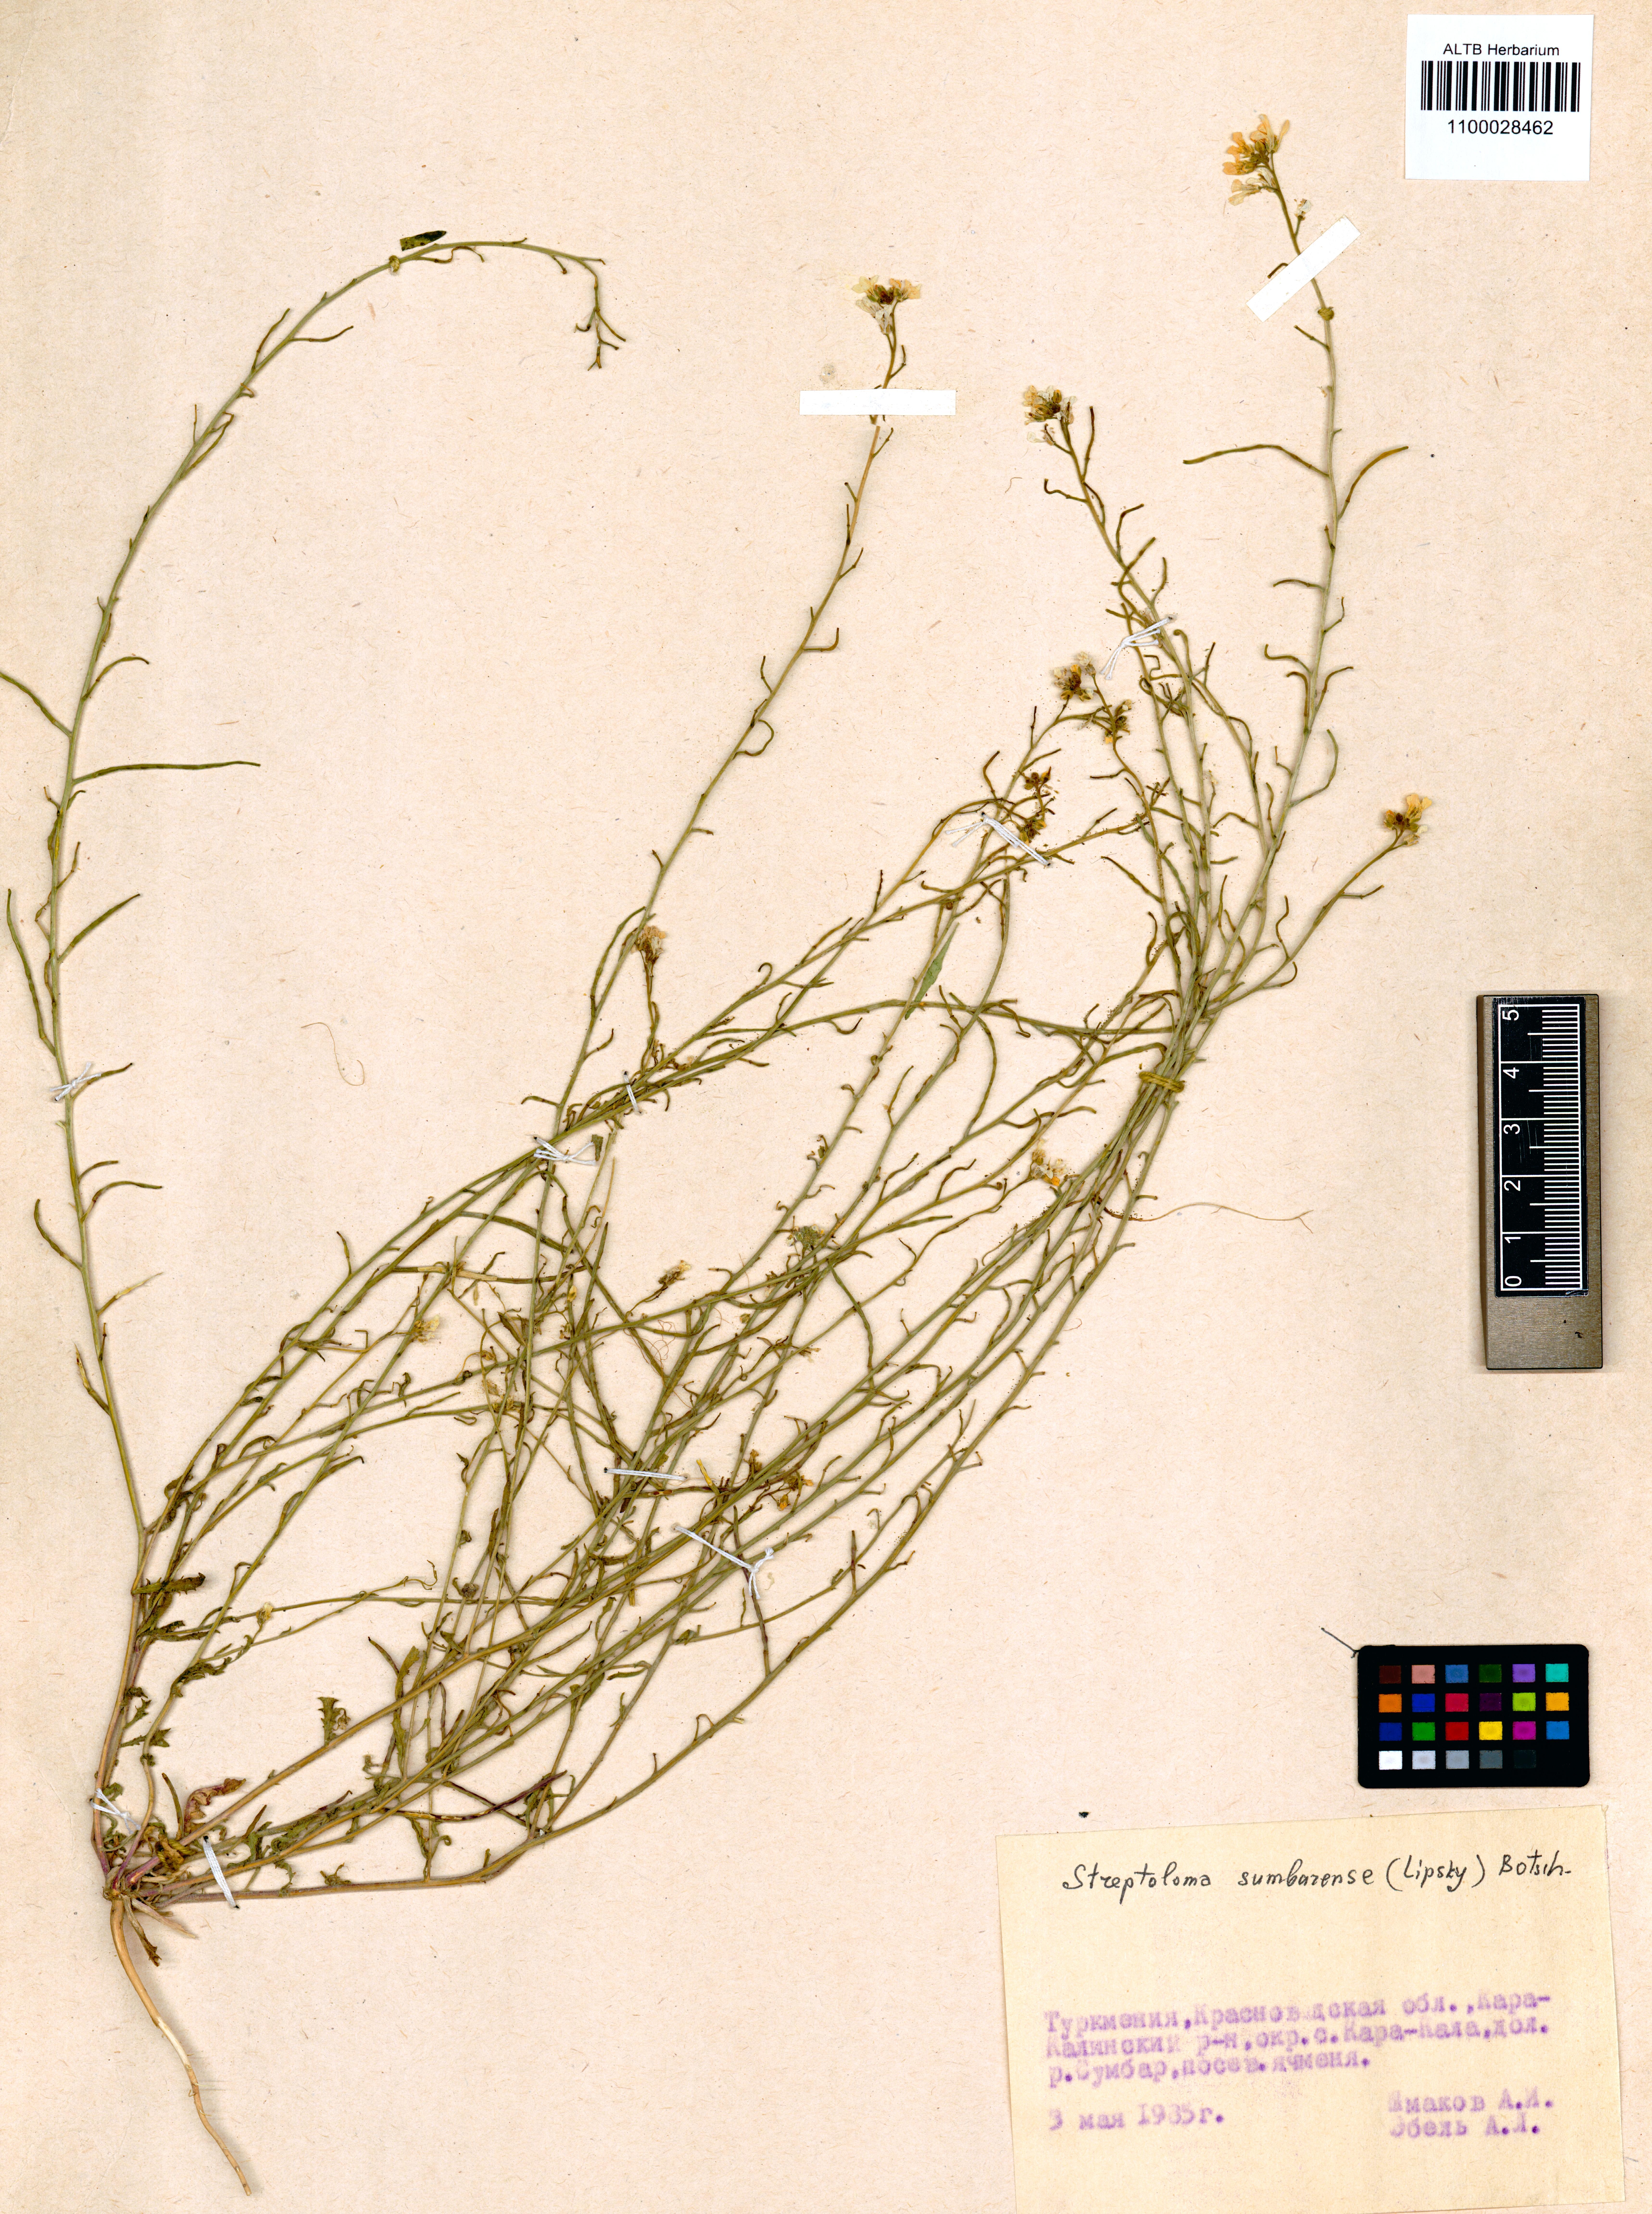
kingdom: Plantae
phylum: Tracheophyta
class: Magnoliopsida
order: Brassicales
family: Brassicaceae
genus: Streptoloma
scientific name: Streptoloma sumbarense
